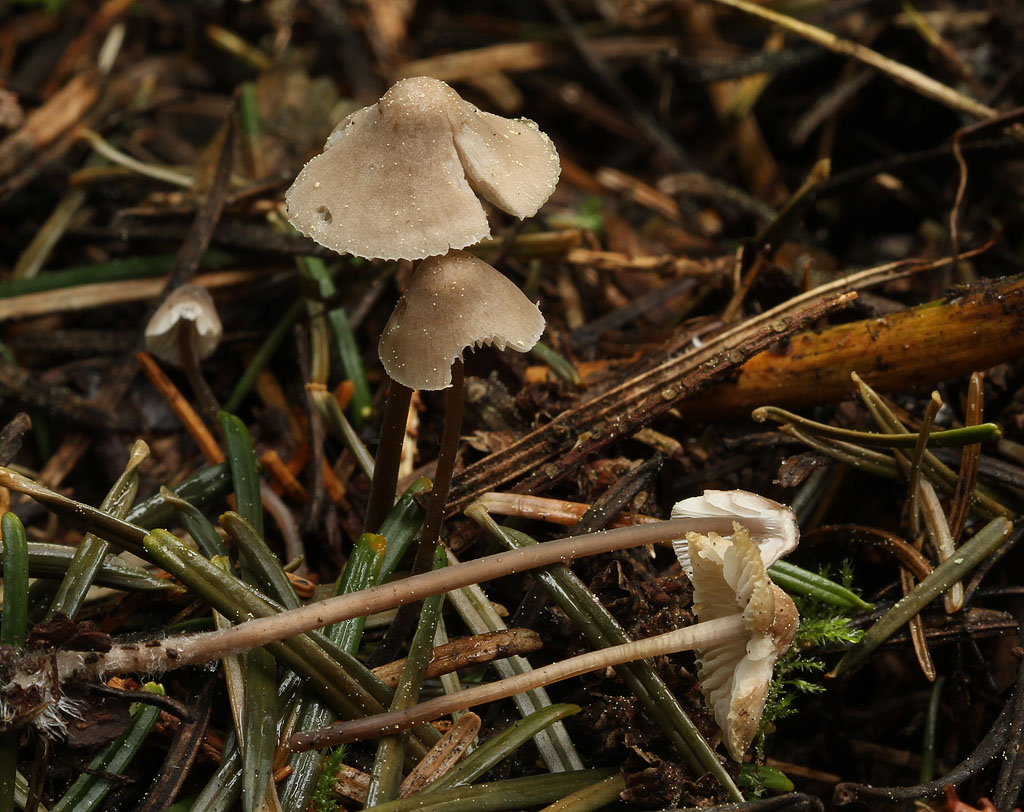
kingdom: Fungi
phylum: Basidiomycota
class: Agaricomycetes
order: Agaricales
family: Mycenaceae
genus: Mycena
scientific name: Mycena abramsii
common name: sommer-huesvamp
